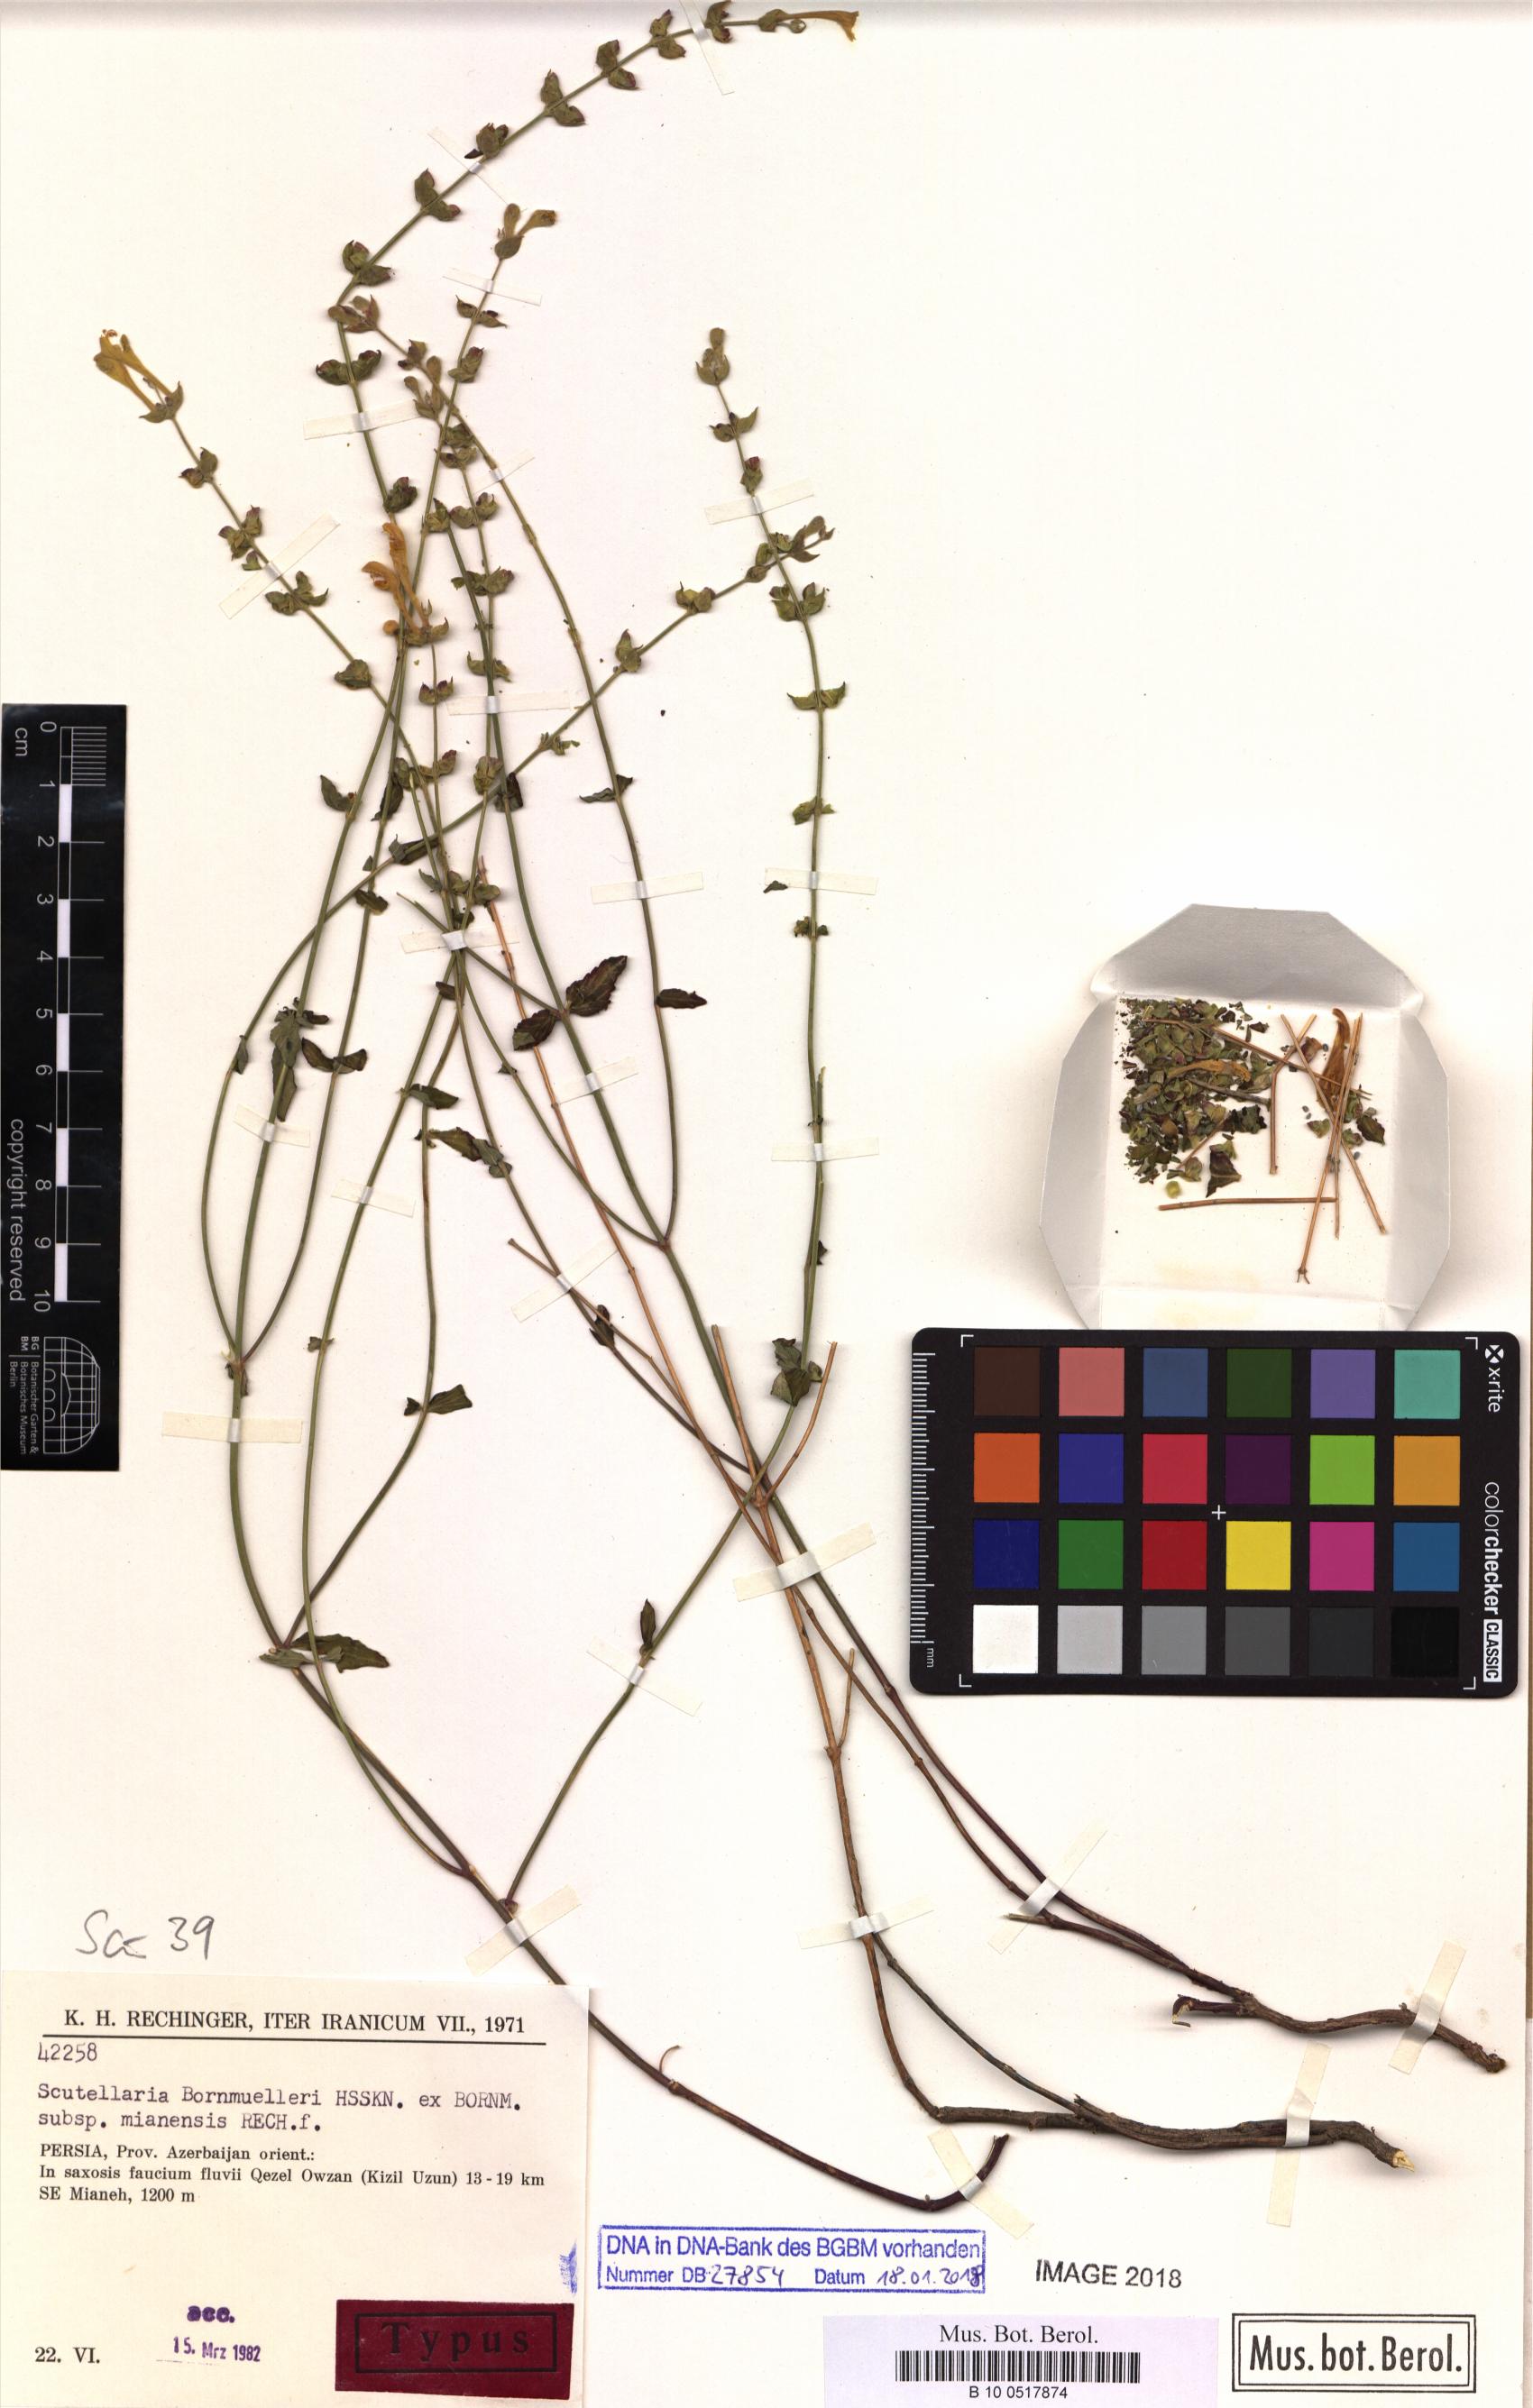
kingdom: Plantae
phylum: Tracheophyta
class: Magnoliopsida
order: Lamiales
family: Lamiaceae
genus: Scutellaria
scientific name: Scutellaria bornmuelleri
